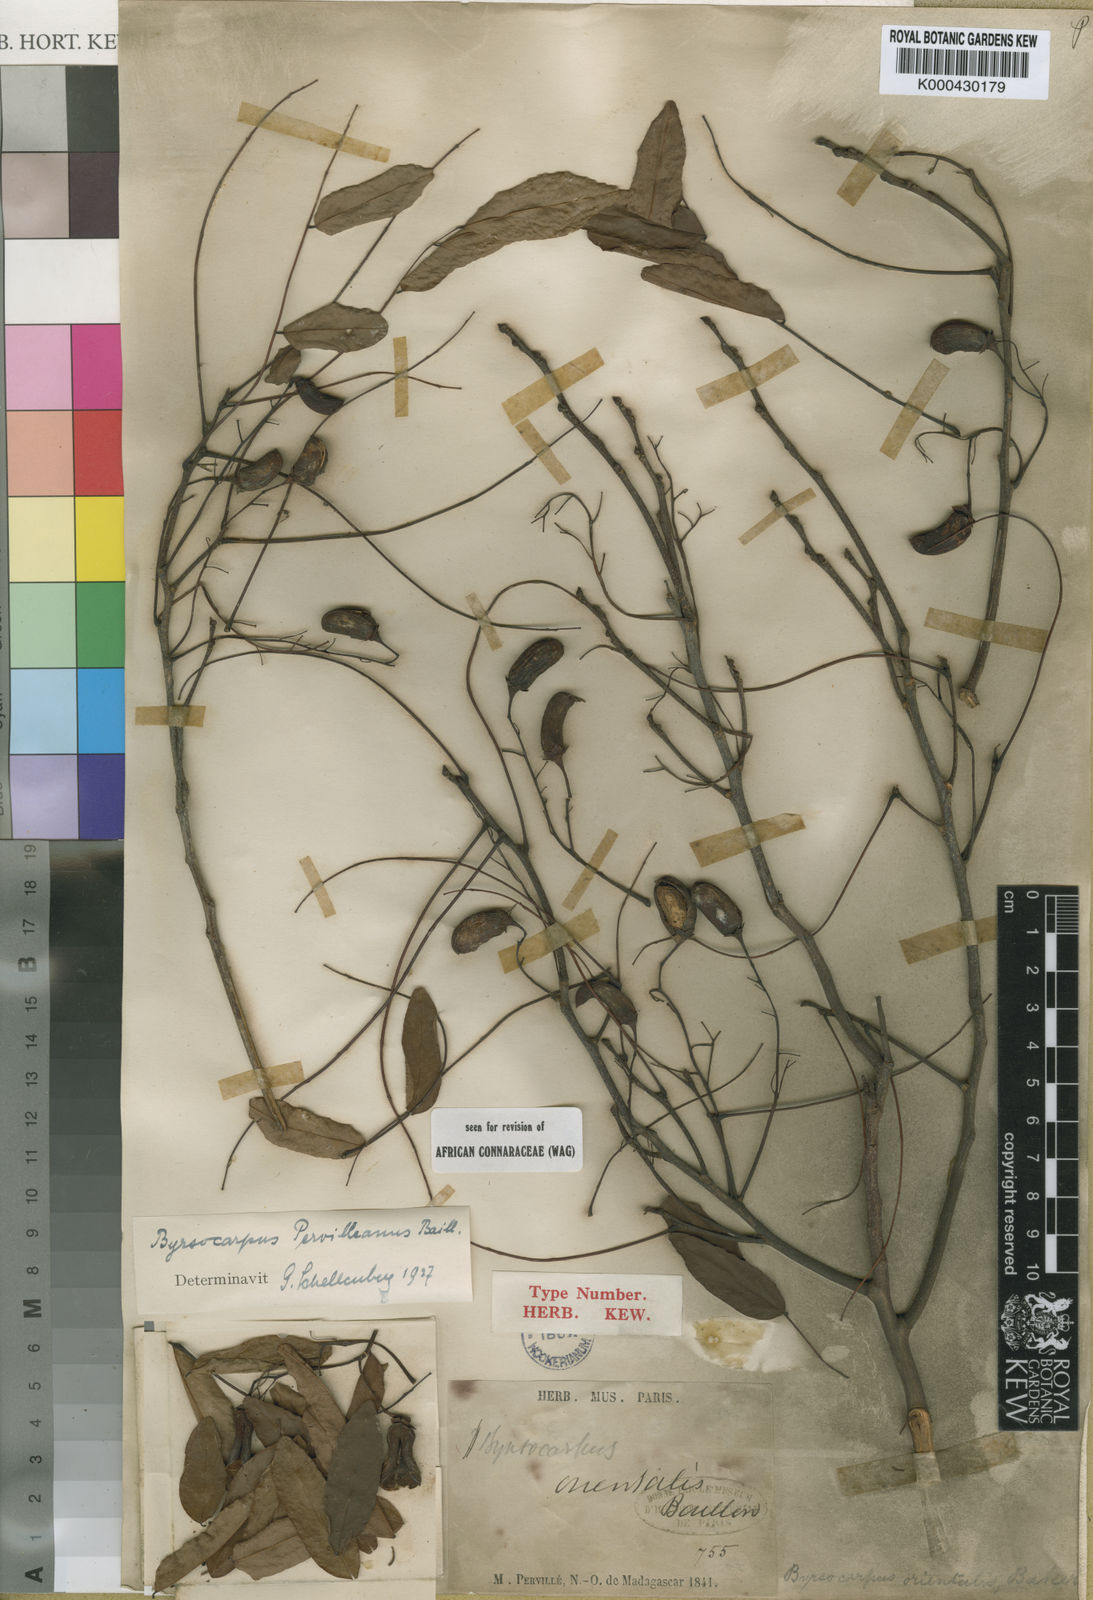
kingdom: Plantae
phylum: Tracheophyta
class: Magnoliopsida
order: Oxalidales
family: Connaraceae
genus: Rourea
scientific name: Rourea orientalis
